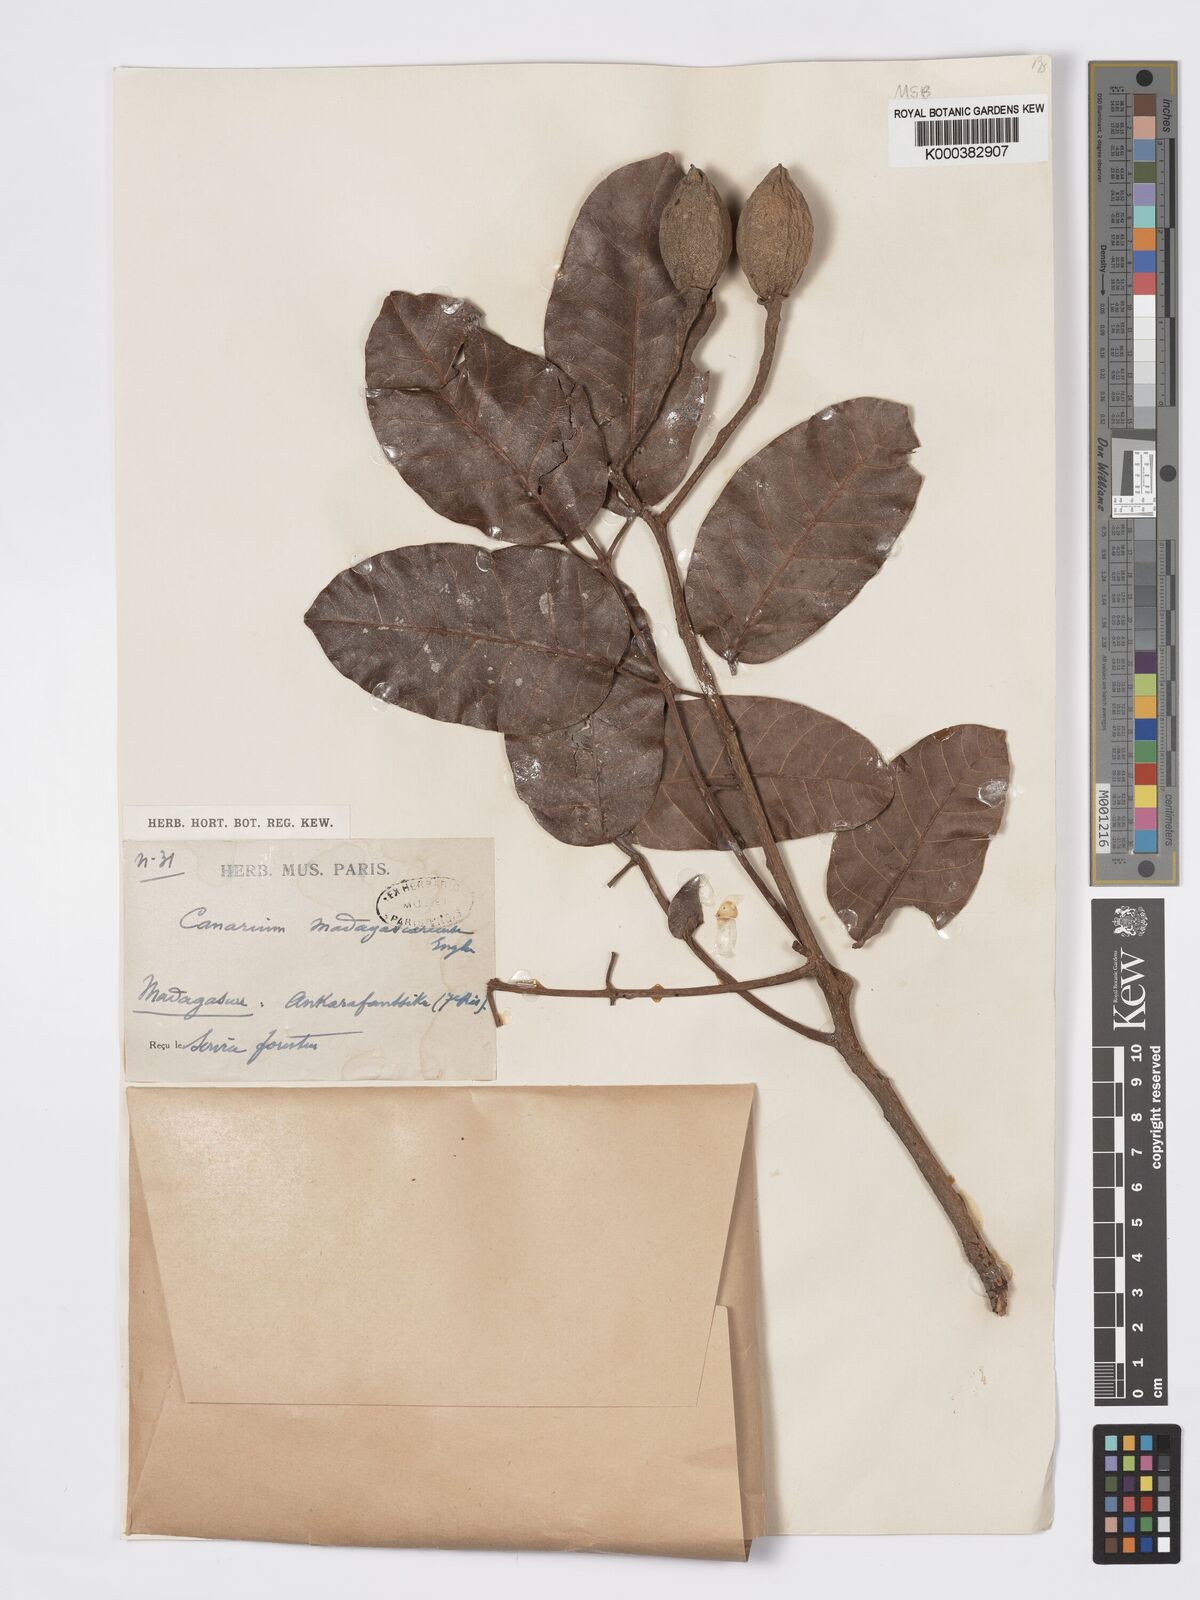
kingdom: Plantae
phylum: Tracheophyta
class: Magnoliopsida
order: Sapindales
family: Burseraceae
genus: Canarium
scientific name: Canarium madagascariense
